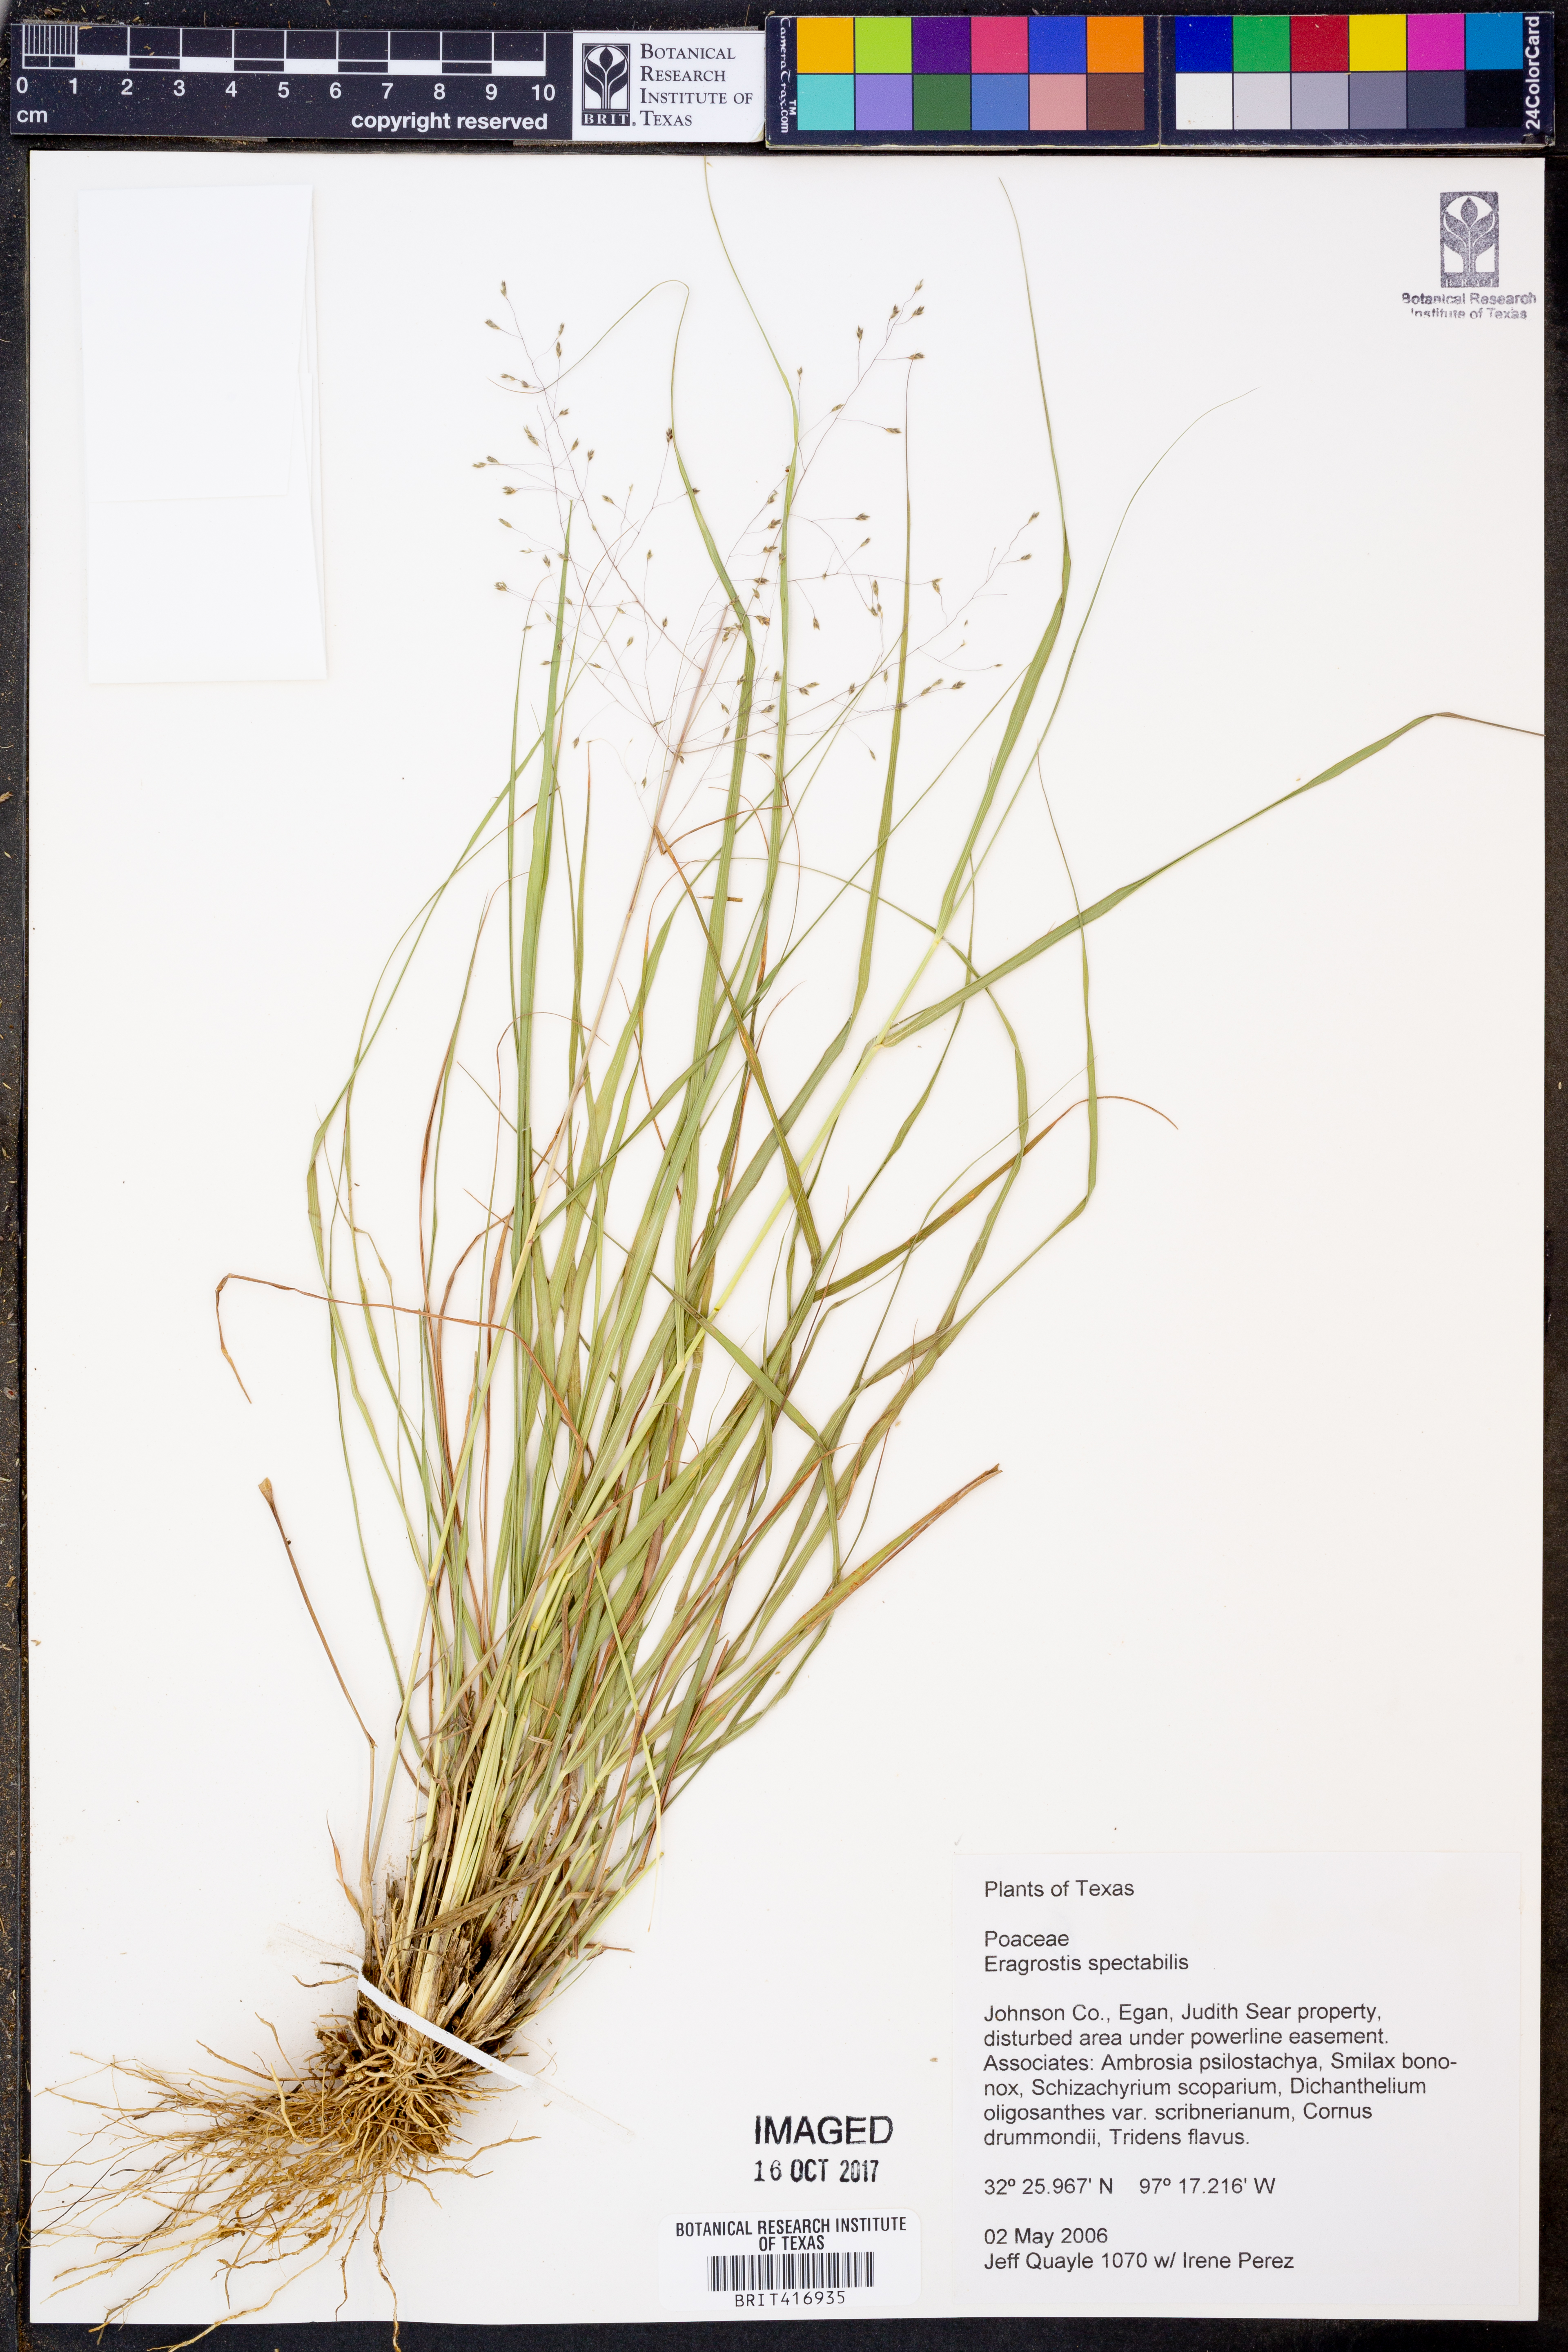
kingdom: Plantae
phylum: Tracheophyta
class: Liliopsida
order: Poales
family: Poaceae
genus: Eragrostis
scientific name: Eragrostis spectabilis
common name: Petticoat-climber
